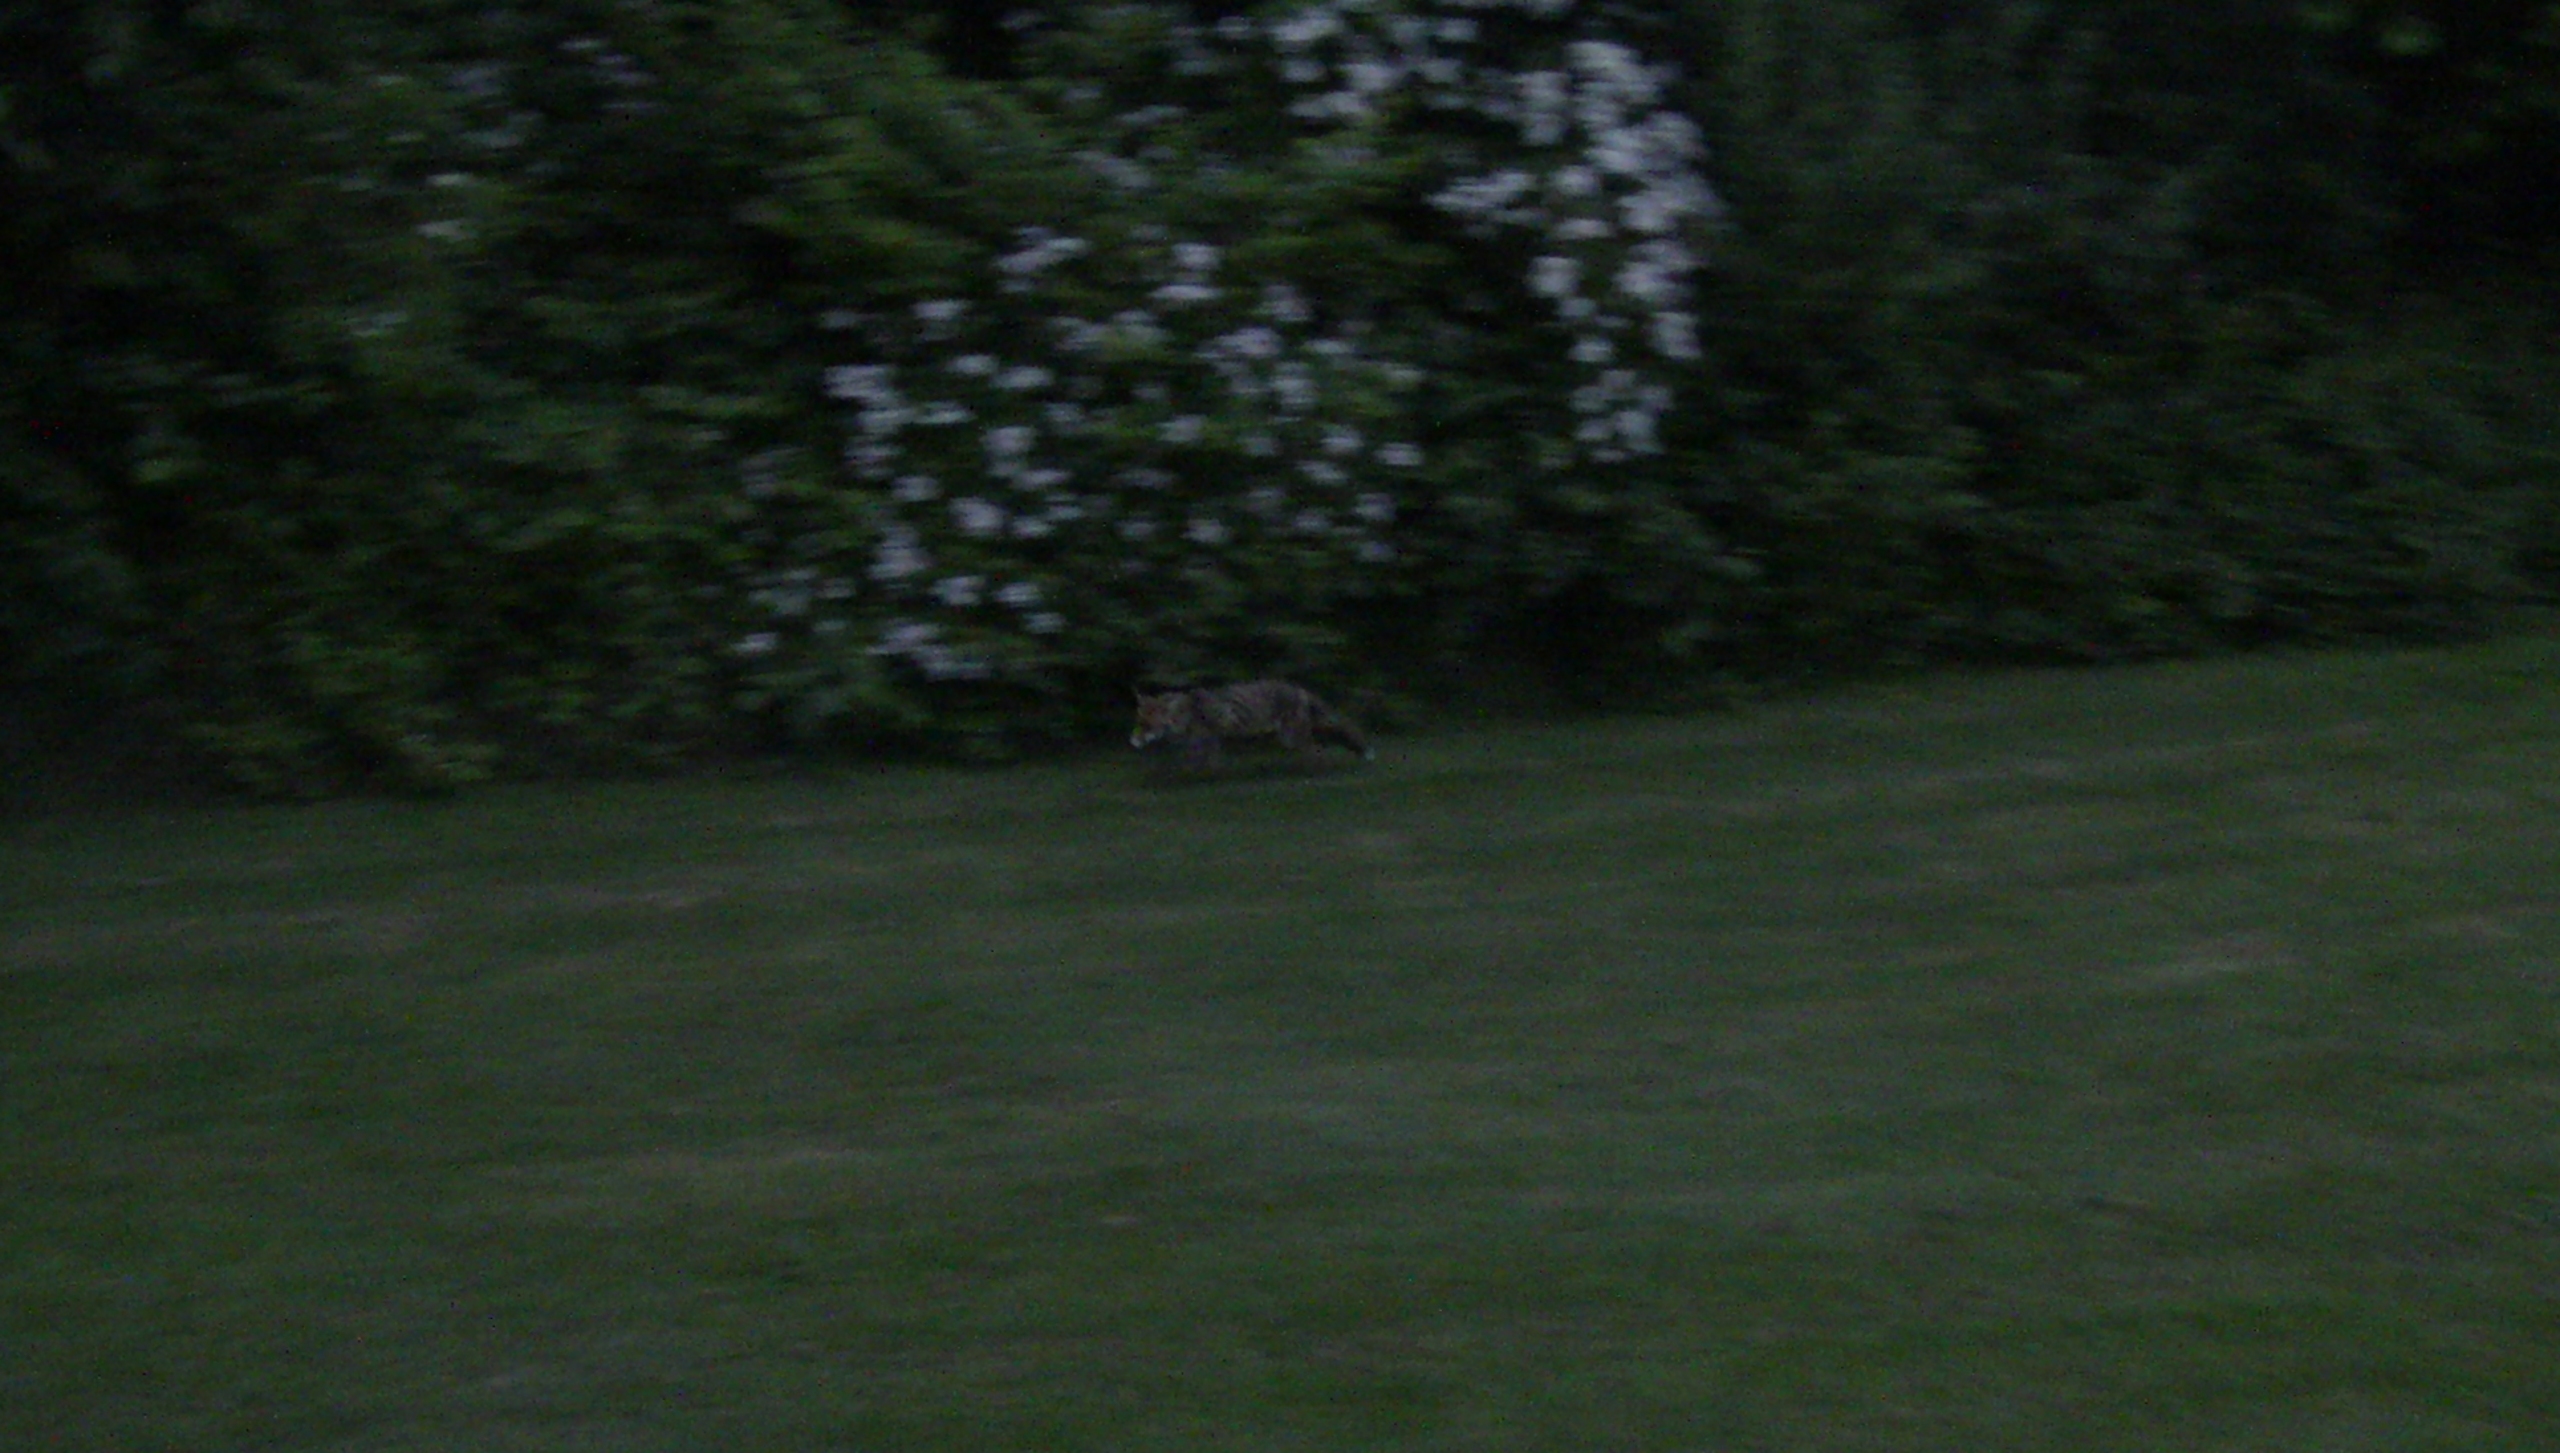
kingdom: Animalia
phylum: Chordata
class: Mammalia
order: Carnivora
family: Canidae
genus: Vulpes
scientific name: Vulpes vulpes
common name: Ræv
